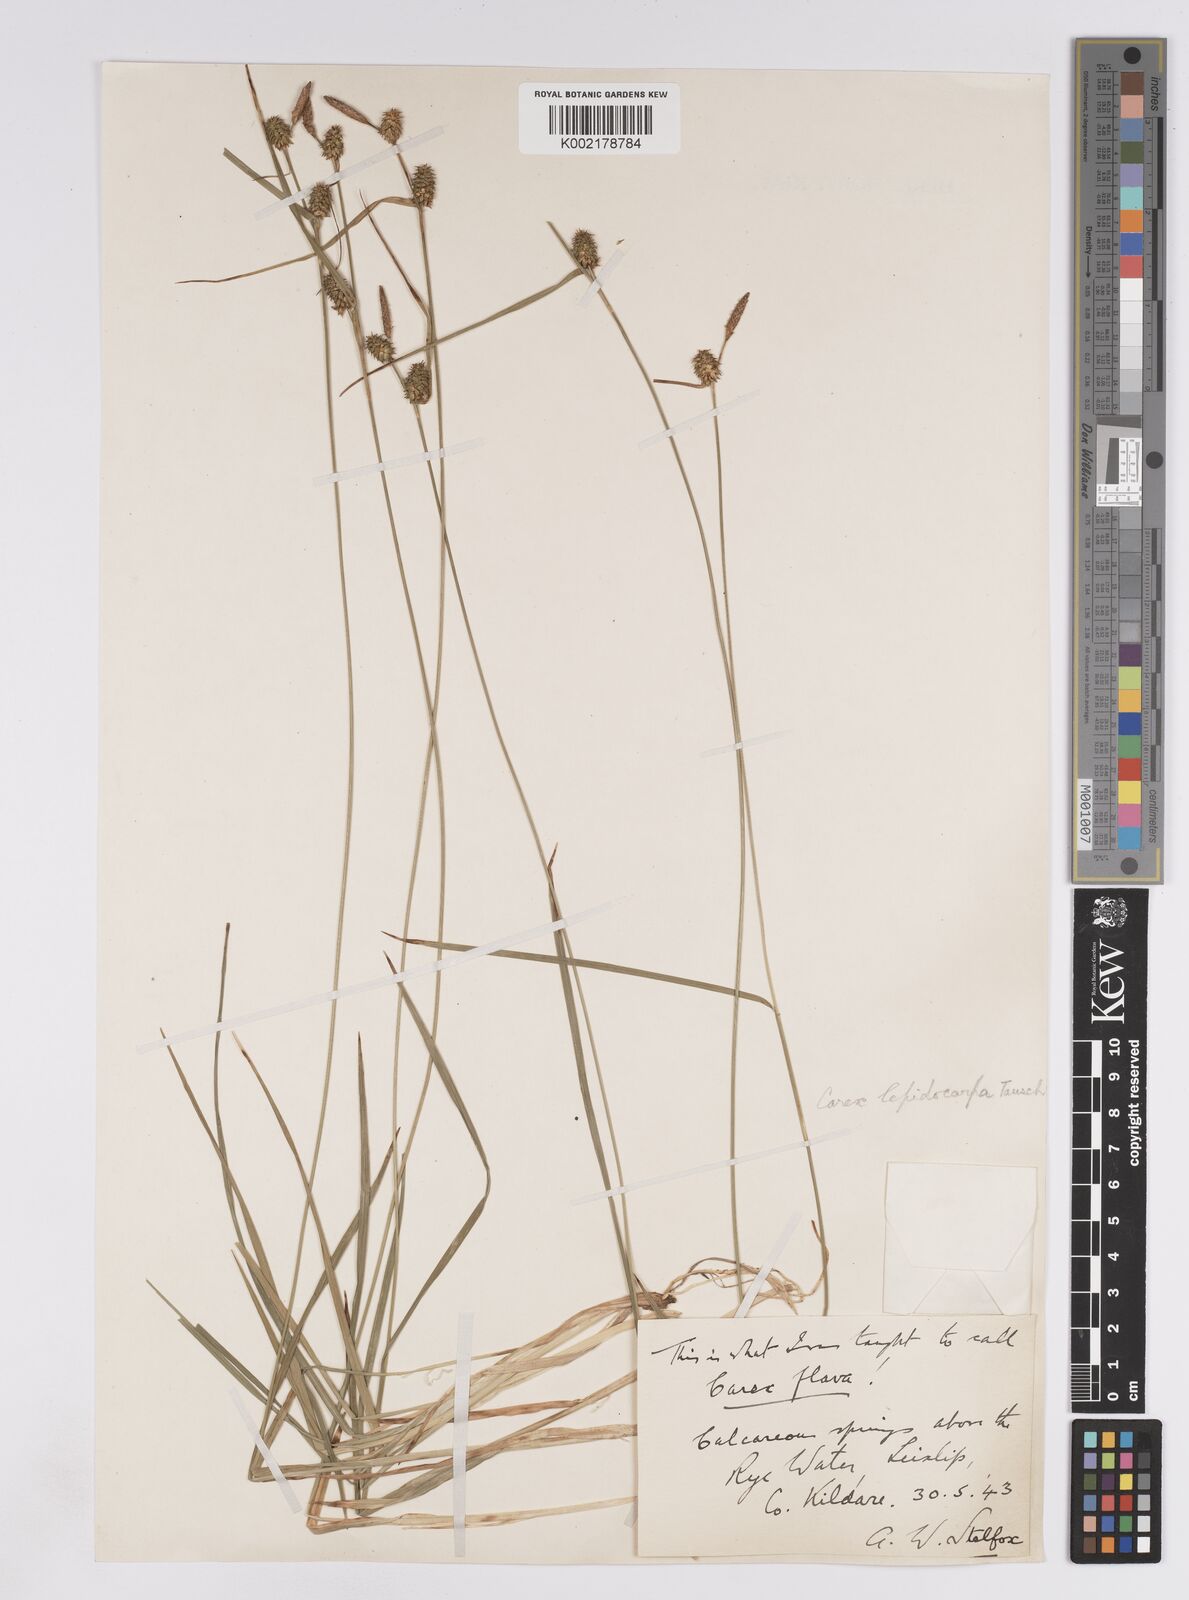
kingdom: Plantae
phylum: Tracheophyta
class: Liliopsida
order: Poales
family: Cyperaceae
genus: Carex
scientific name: Carex lepidocarpa
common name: Long-stalked yellow-sedge
